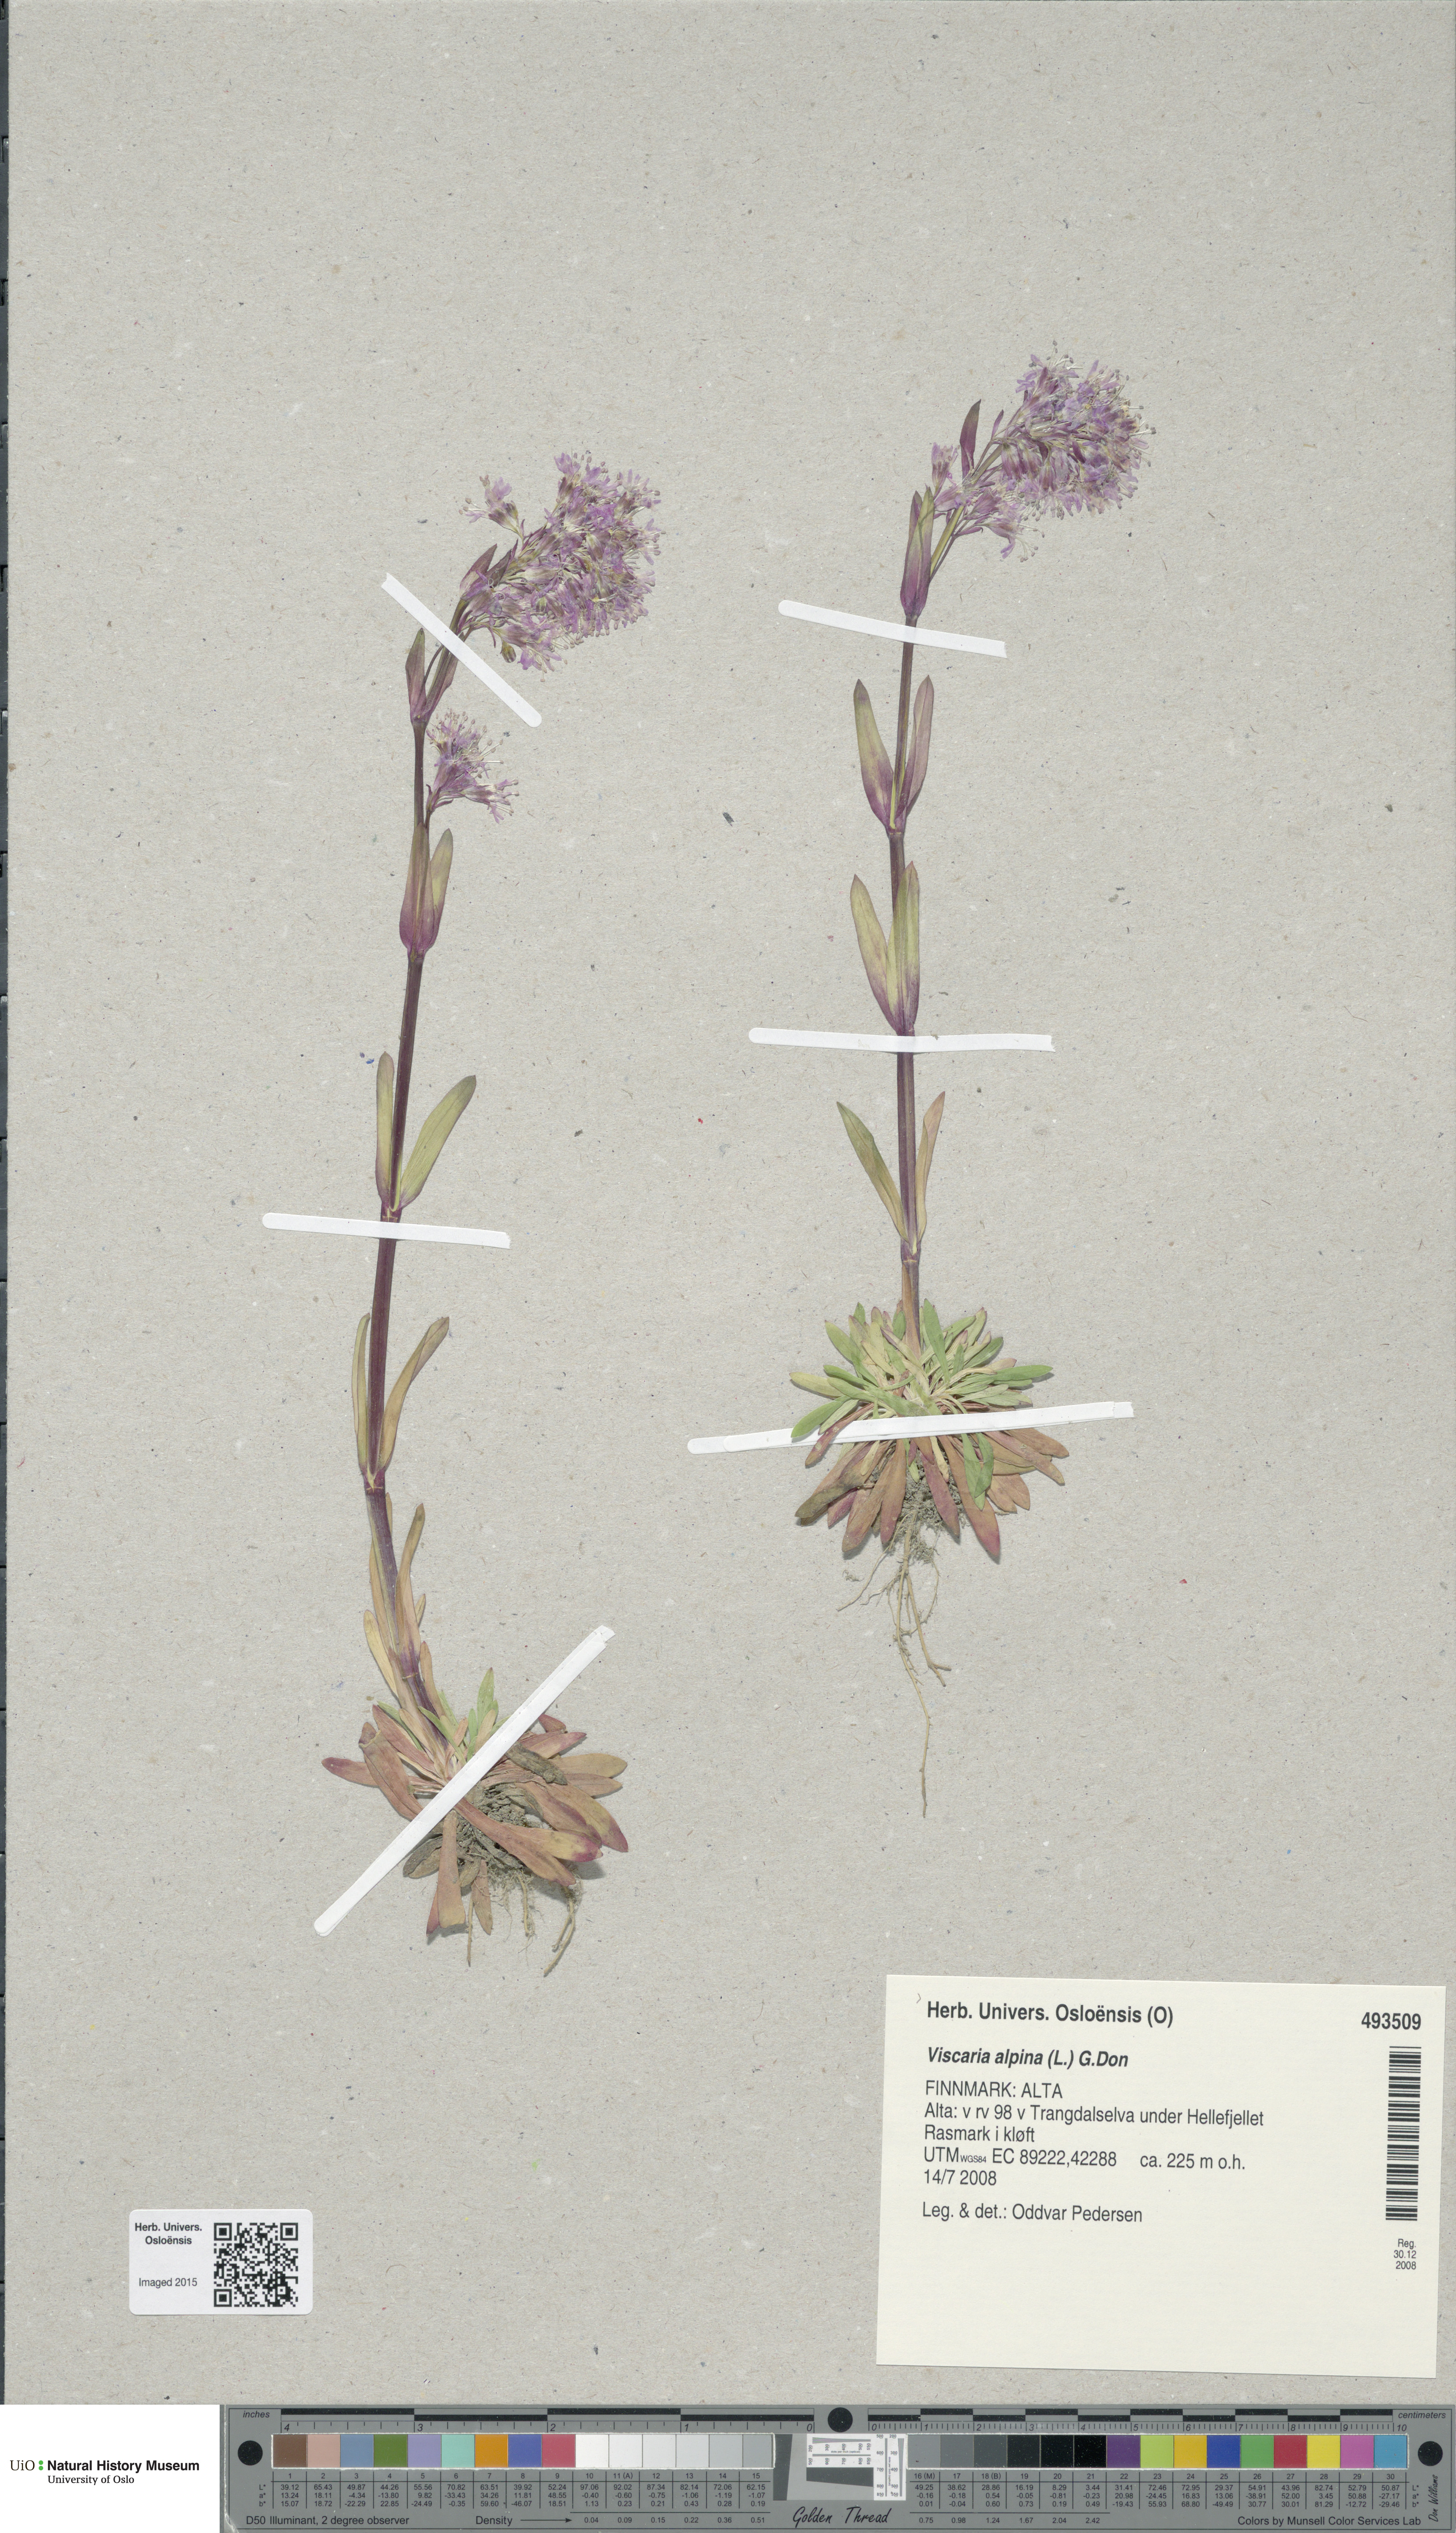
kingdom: Plantae
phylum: Tracheophyta
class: Magnoliopsida
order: Caryophyllales
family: Caryophyllaceae
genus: Viscaria
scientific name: Viscaria alpina
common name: Alpine campion
